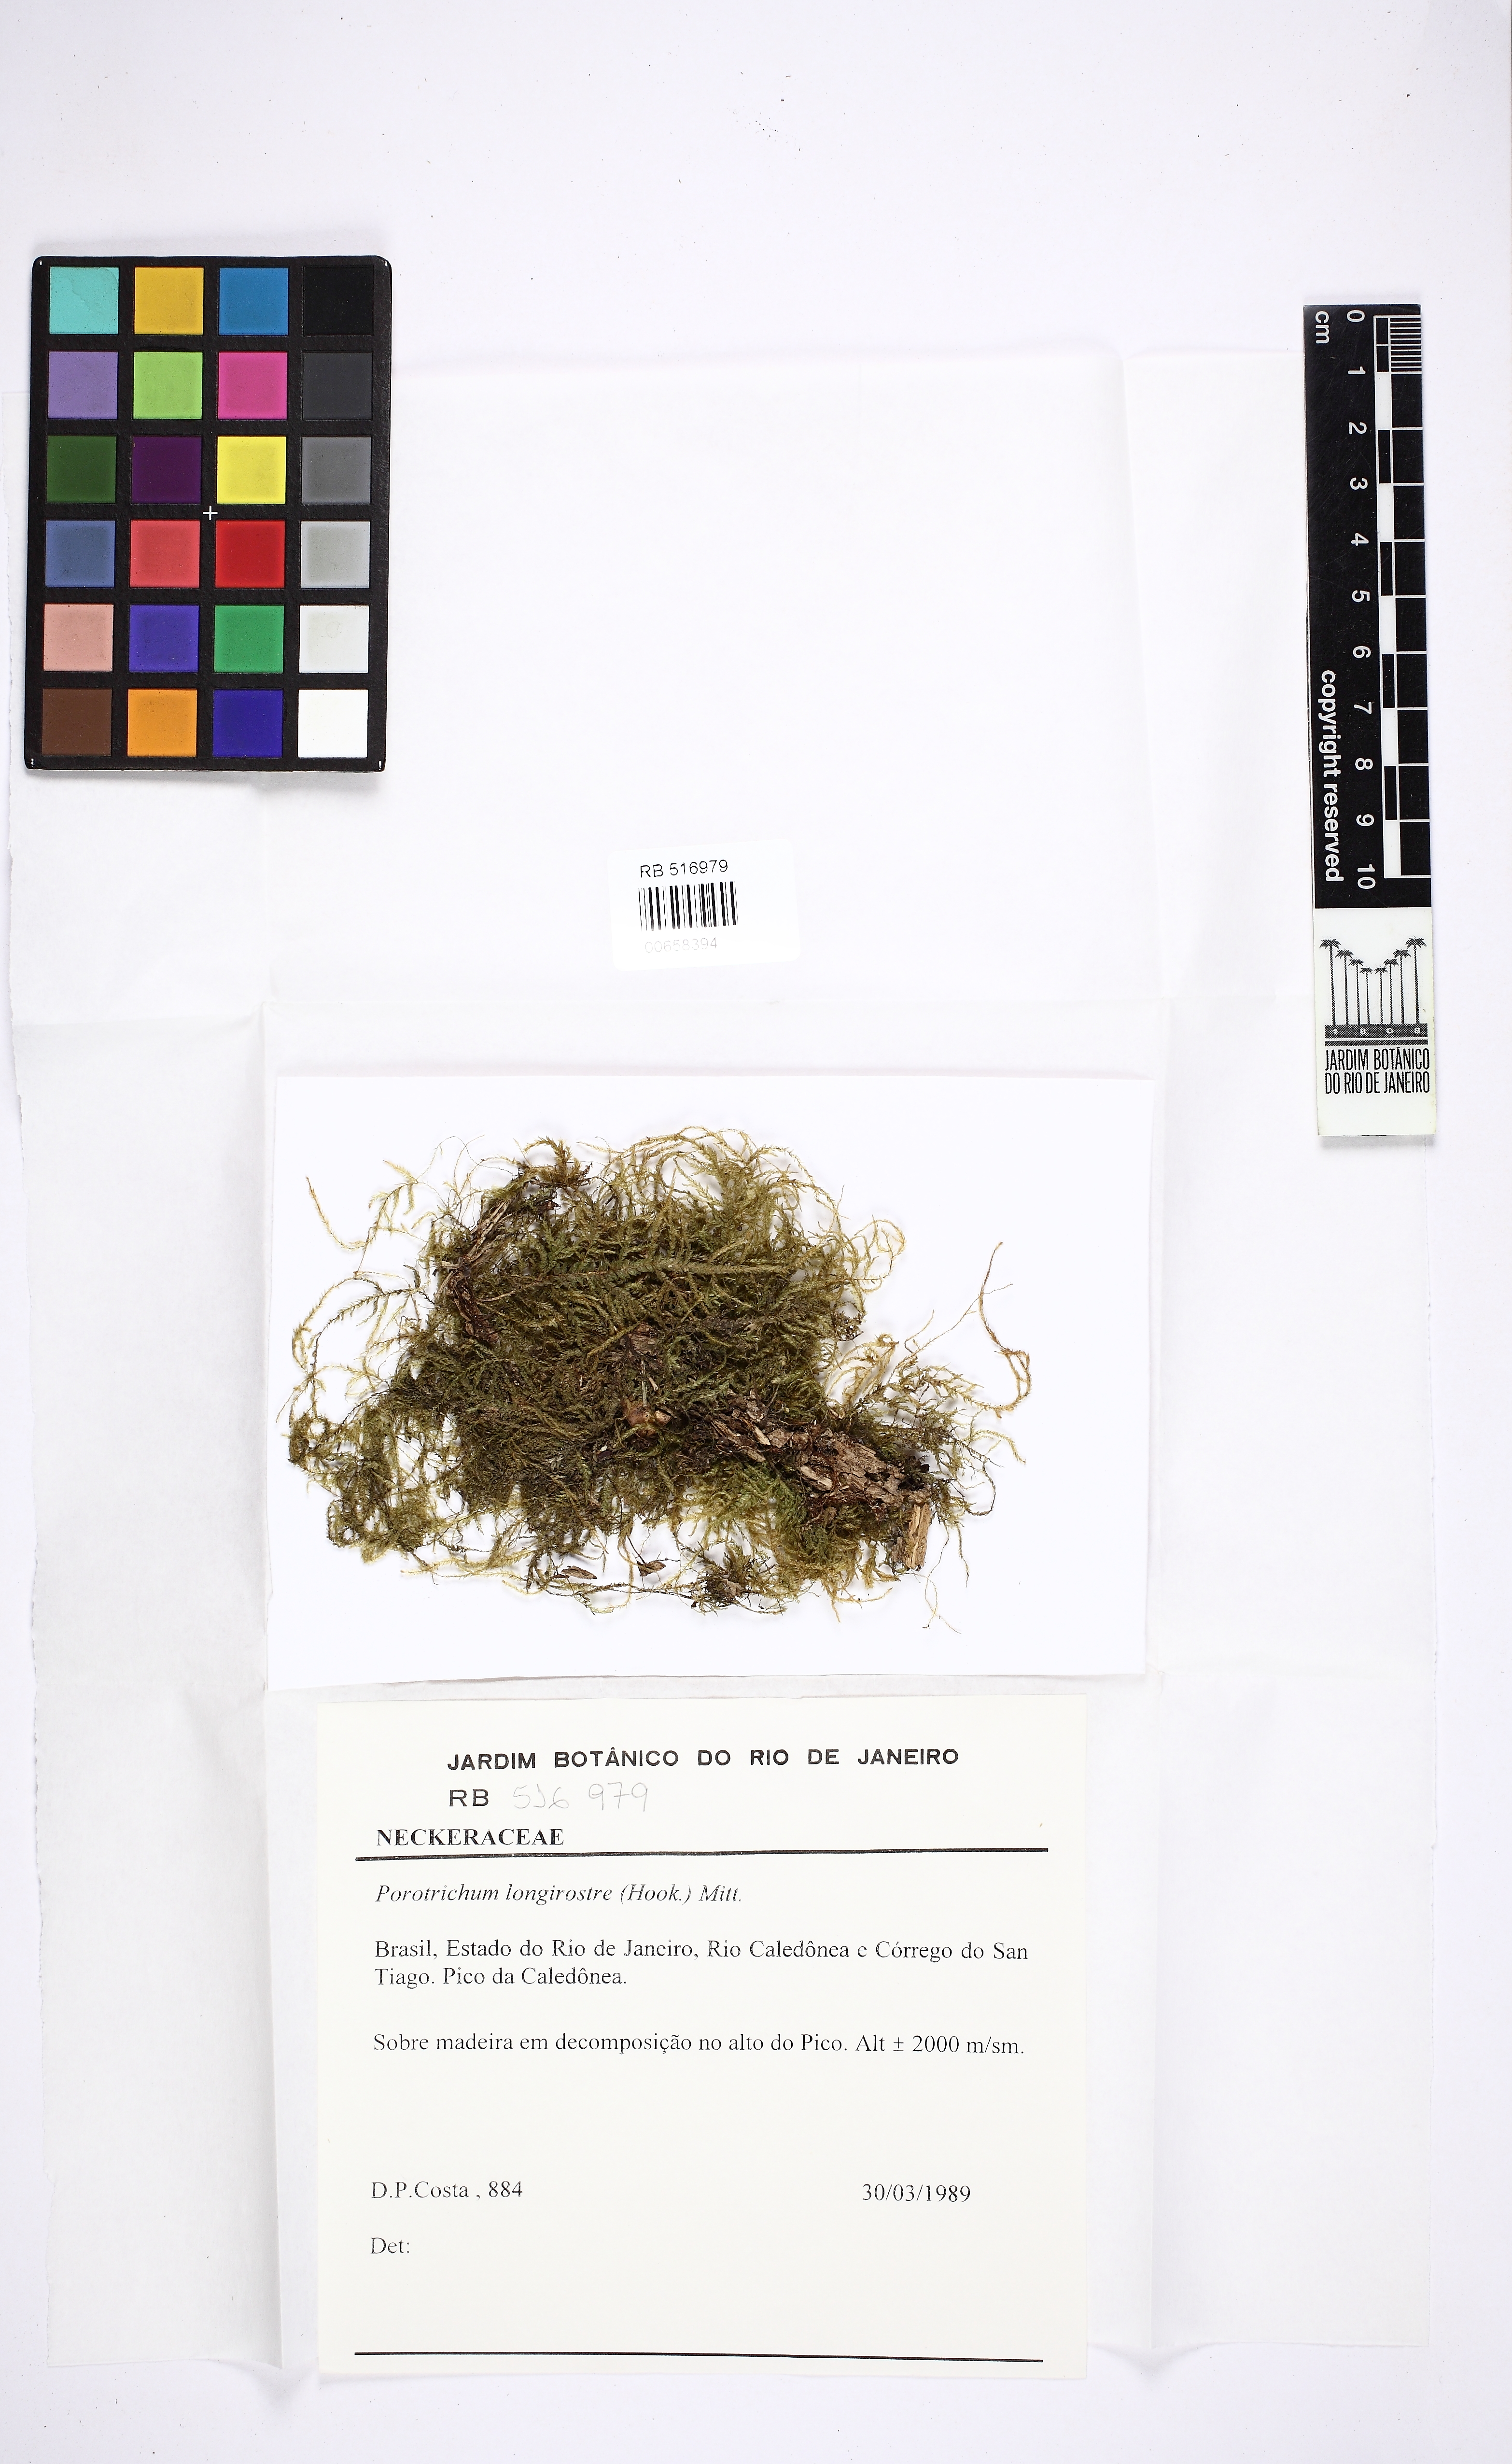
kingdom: Plantae
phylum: Bryophyta
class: Bryopsida
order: Hypnales
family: Neckeraceae
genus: Porotrichum
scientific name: Porotrichum longirostre
